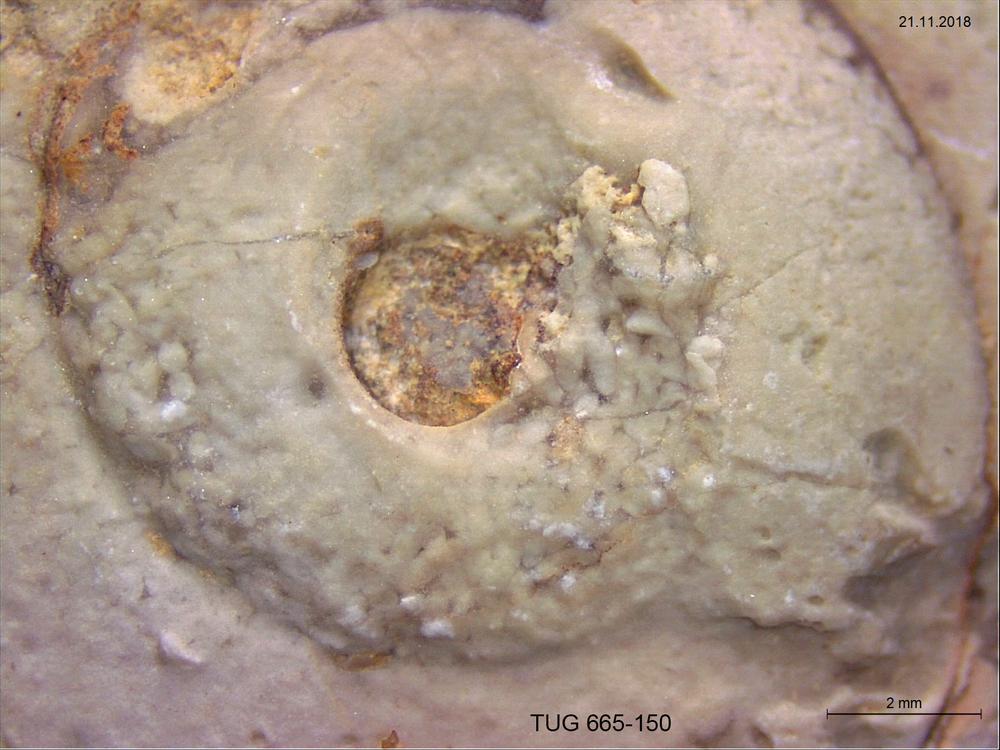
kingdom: Animalia
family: Coprulidae
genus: Coprulus
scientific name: Coprulus
